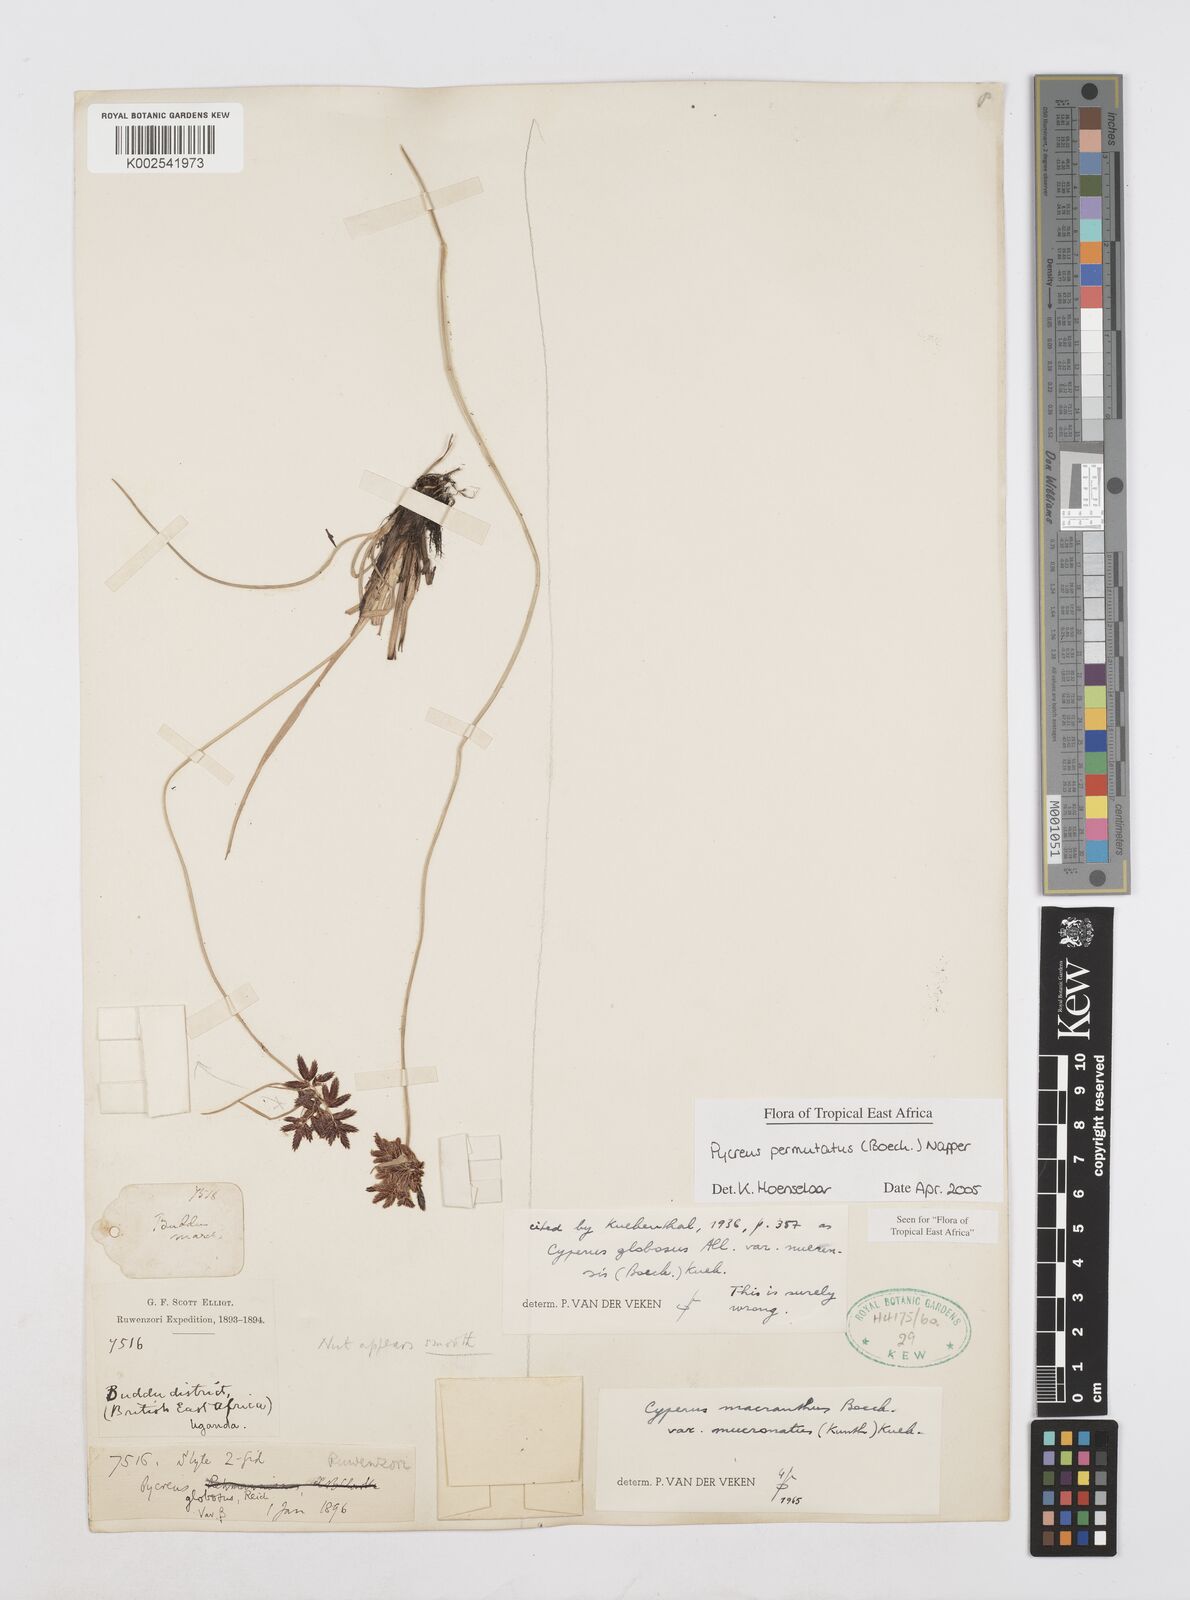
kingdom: Plantae
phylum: Tracheophyta
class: Liliopsida
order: Poales
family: Cyperaceae
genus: Cyperus
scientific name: Cyperus nigricans
